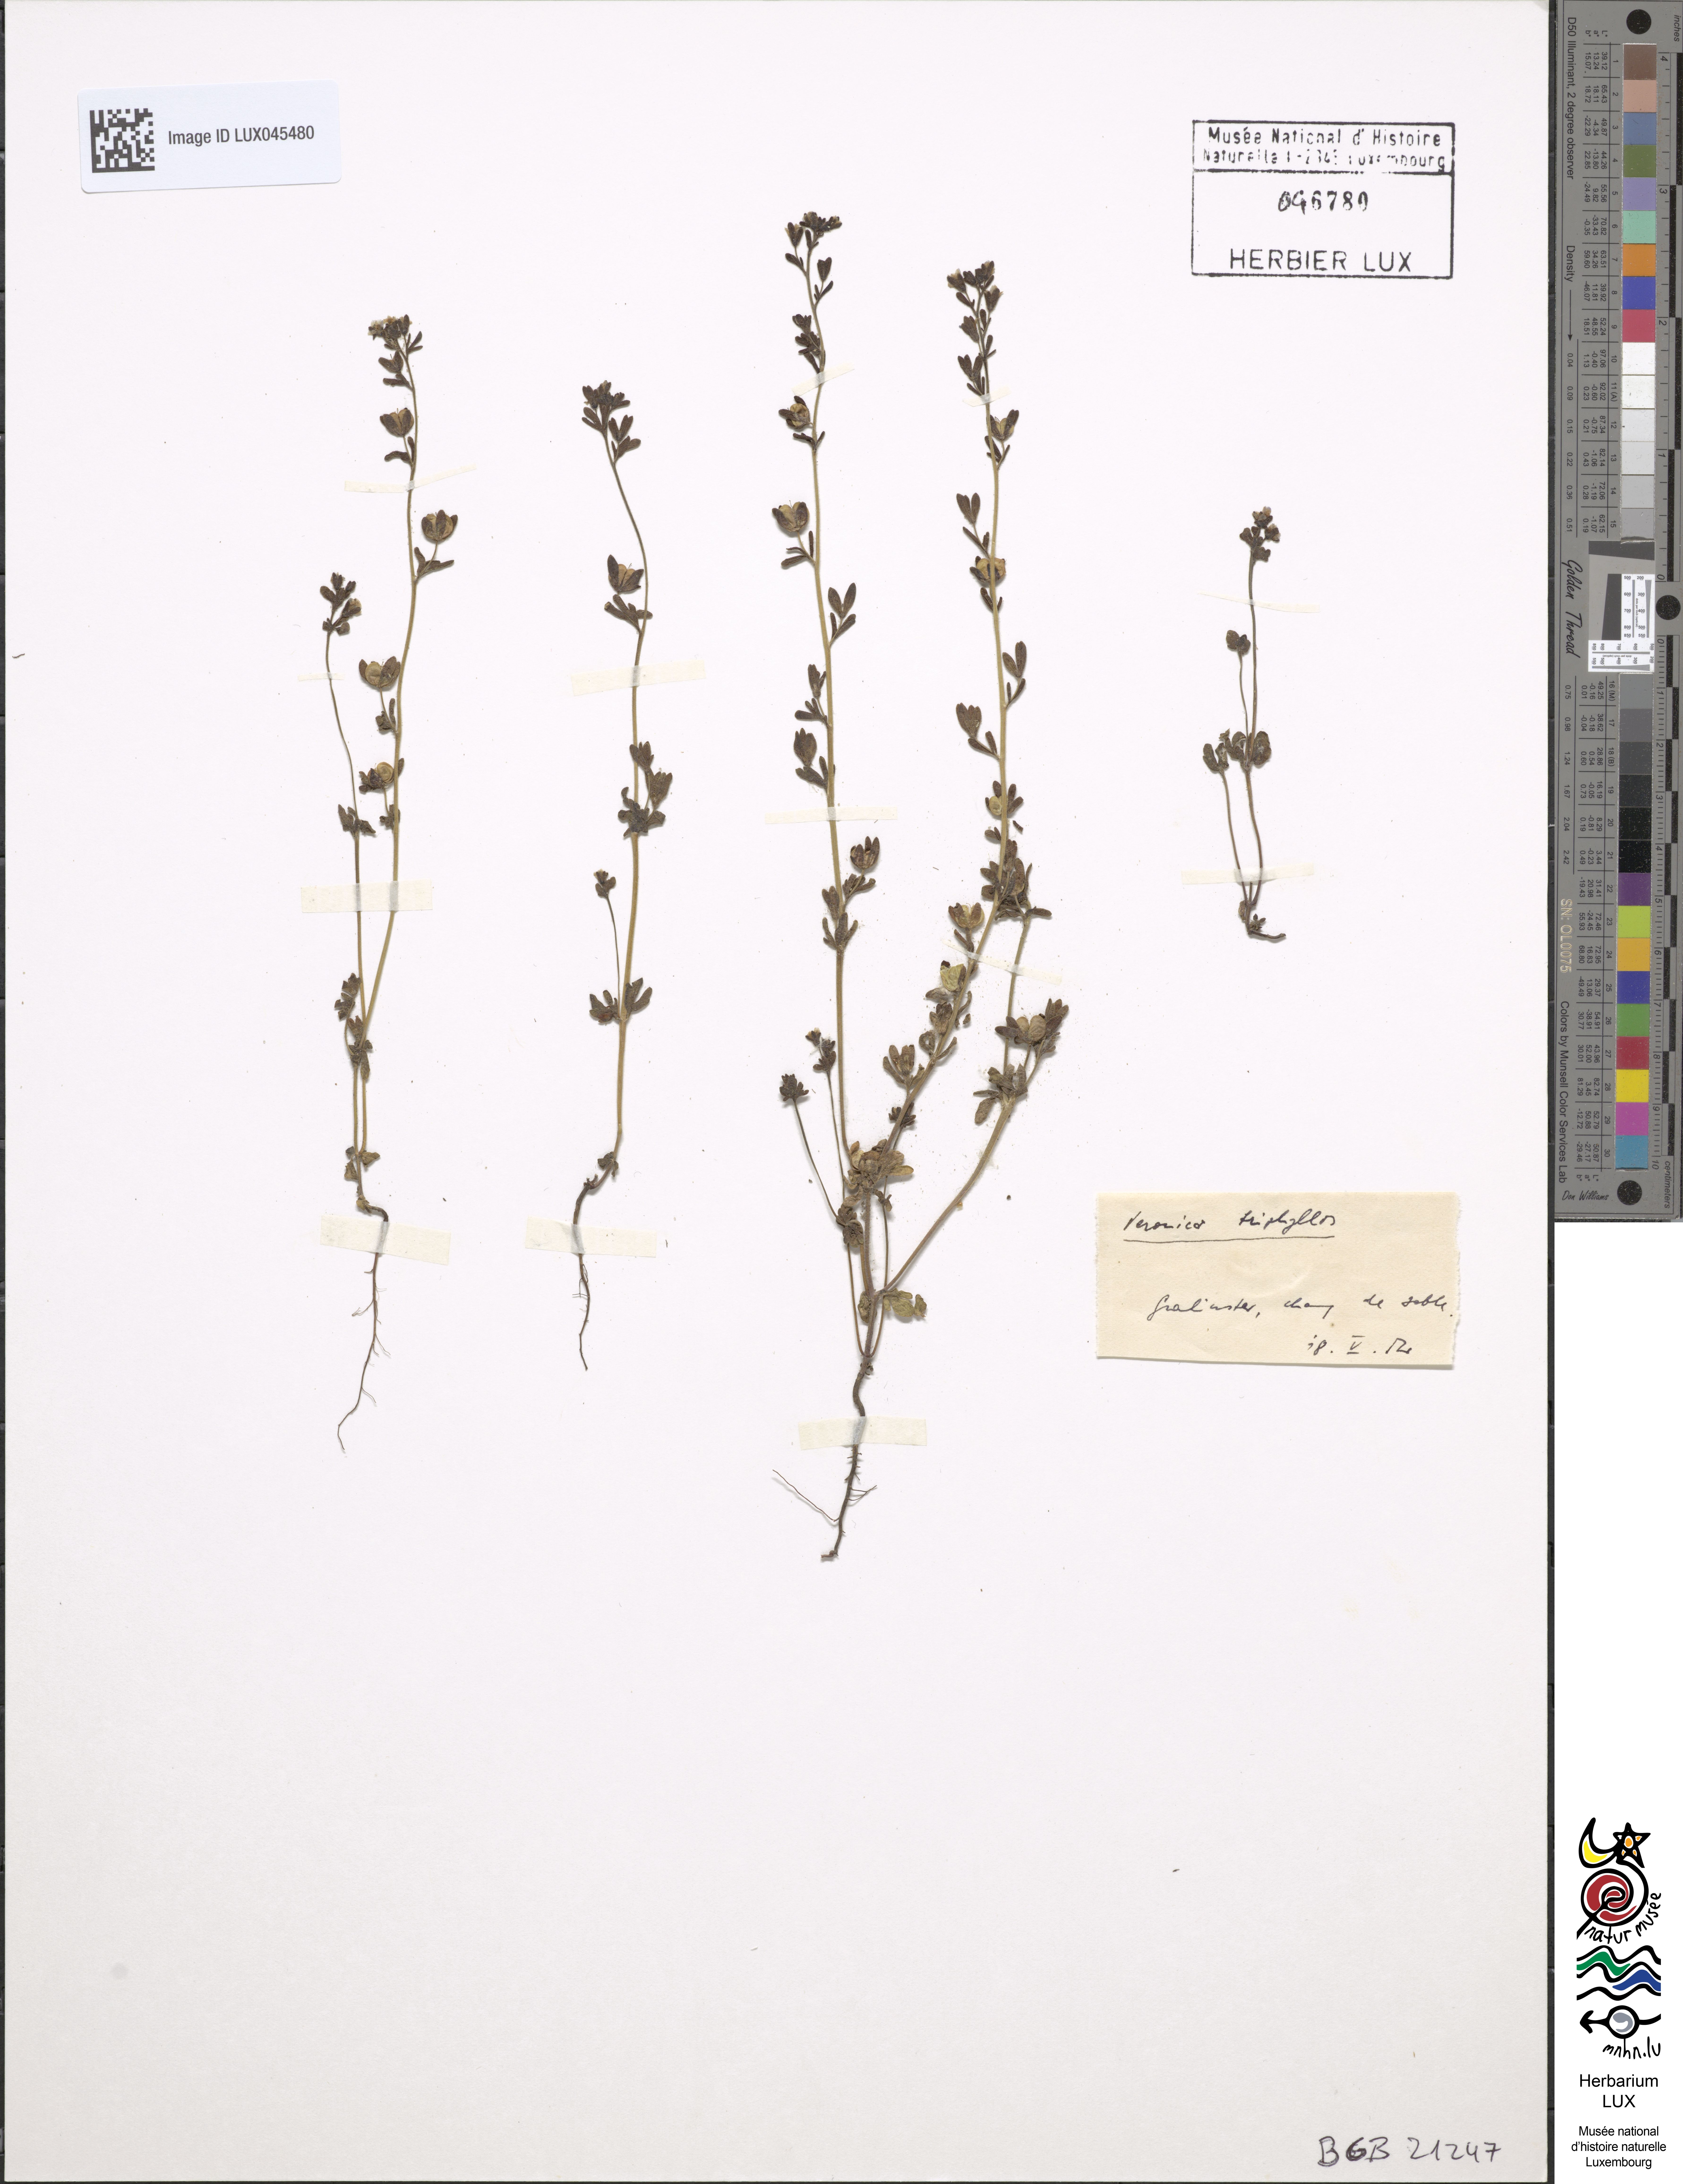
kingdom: Plantae
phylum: Tracheophyta
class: Magnoliopsida
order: Lamiales
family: Plantaginaceae
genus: Veronica
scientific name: Veronica triphyllos
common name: Fingered speedwell
